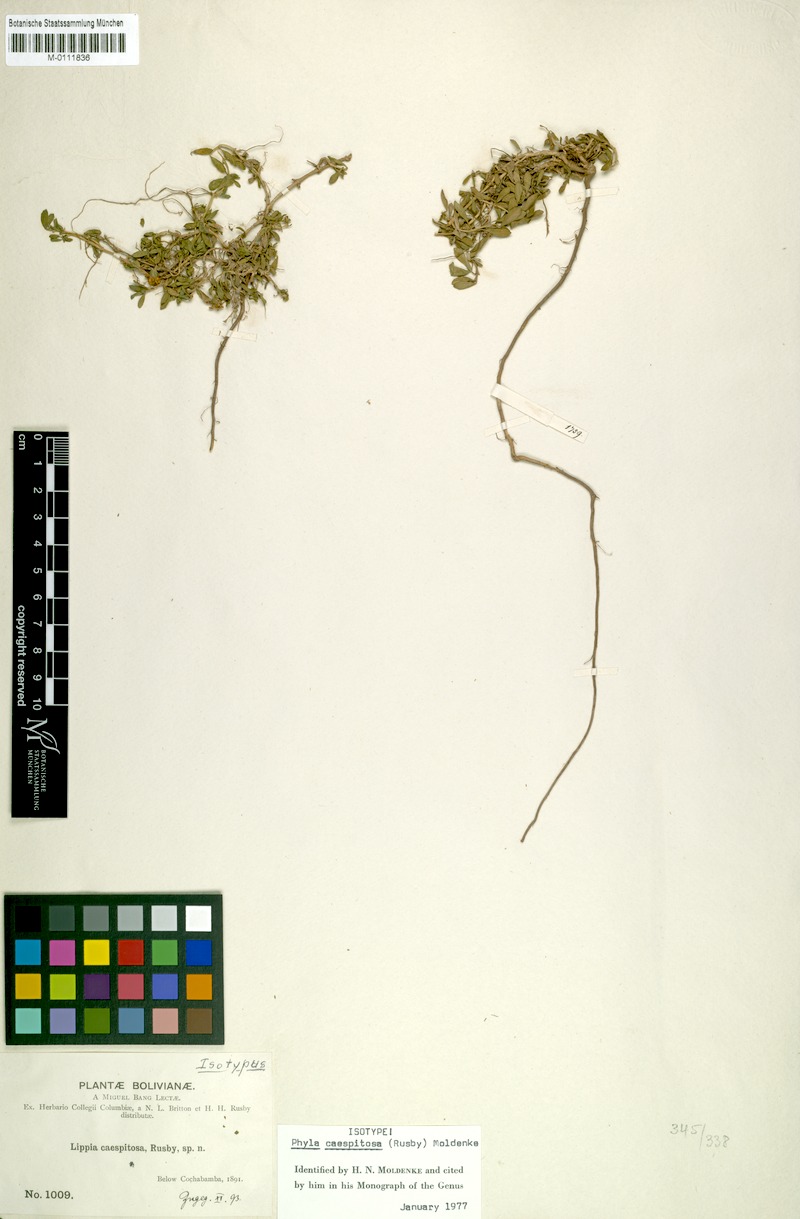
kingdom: Plantae
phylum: Tracheophyta
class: Magnoliopsida
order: Lamiales
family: Verbenaceae
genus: Phyla
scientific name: Phyla nodiflora
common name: Frogfruit
